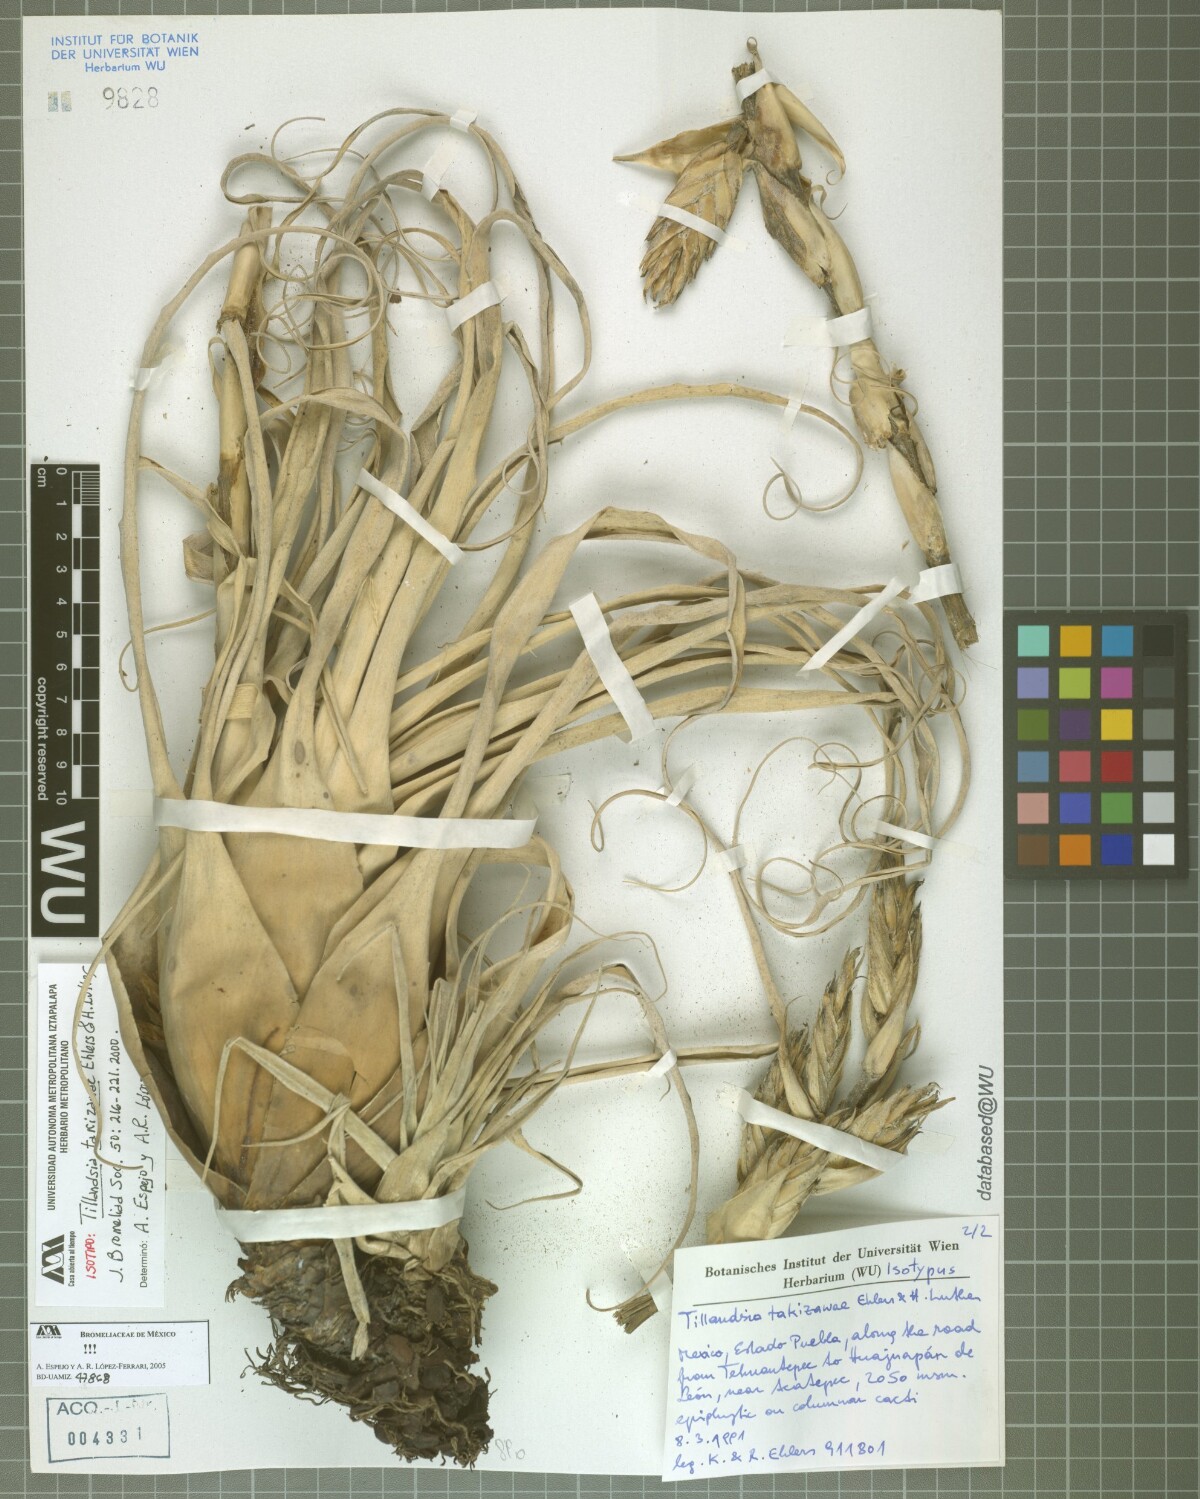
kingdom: Plantae
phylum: Tracheophyta
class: Liliopsida
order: Poales
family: Bromeliaceae
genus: Tillandsia
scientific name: Tillandsia takizawae
